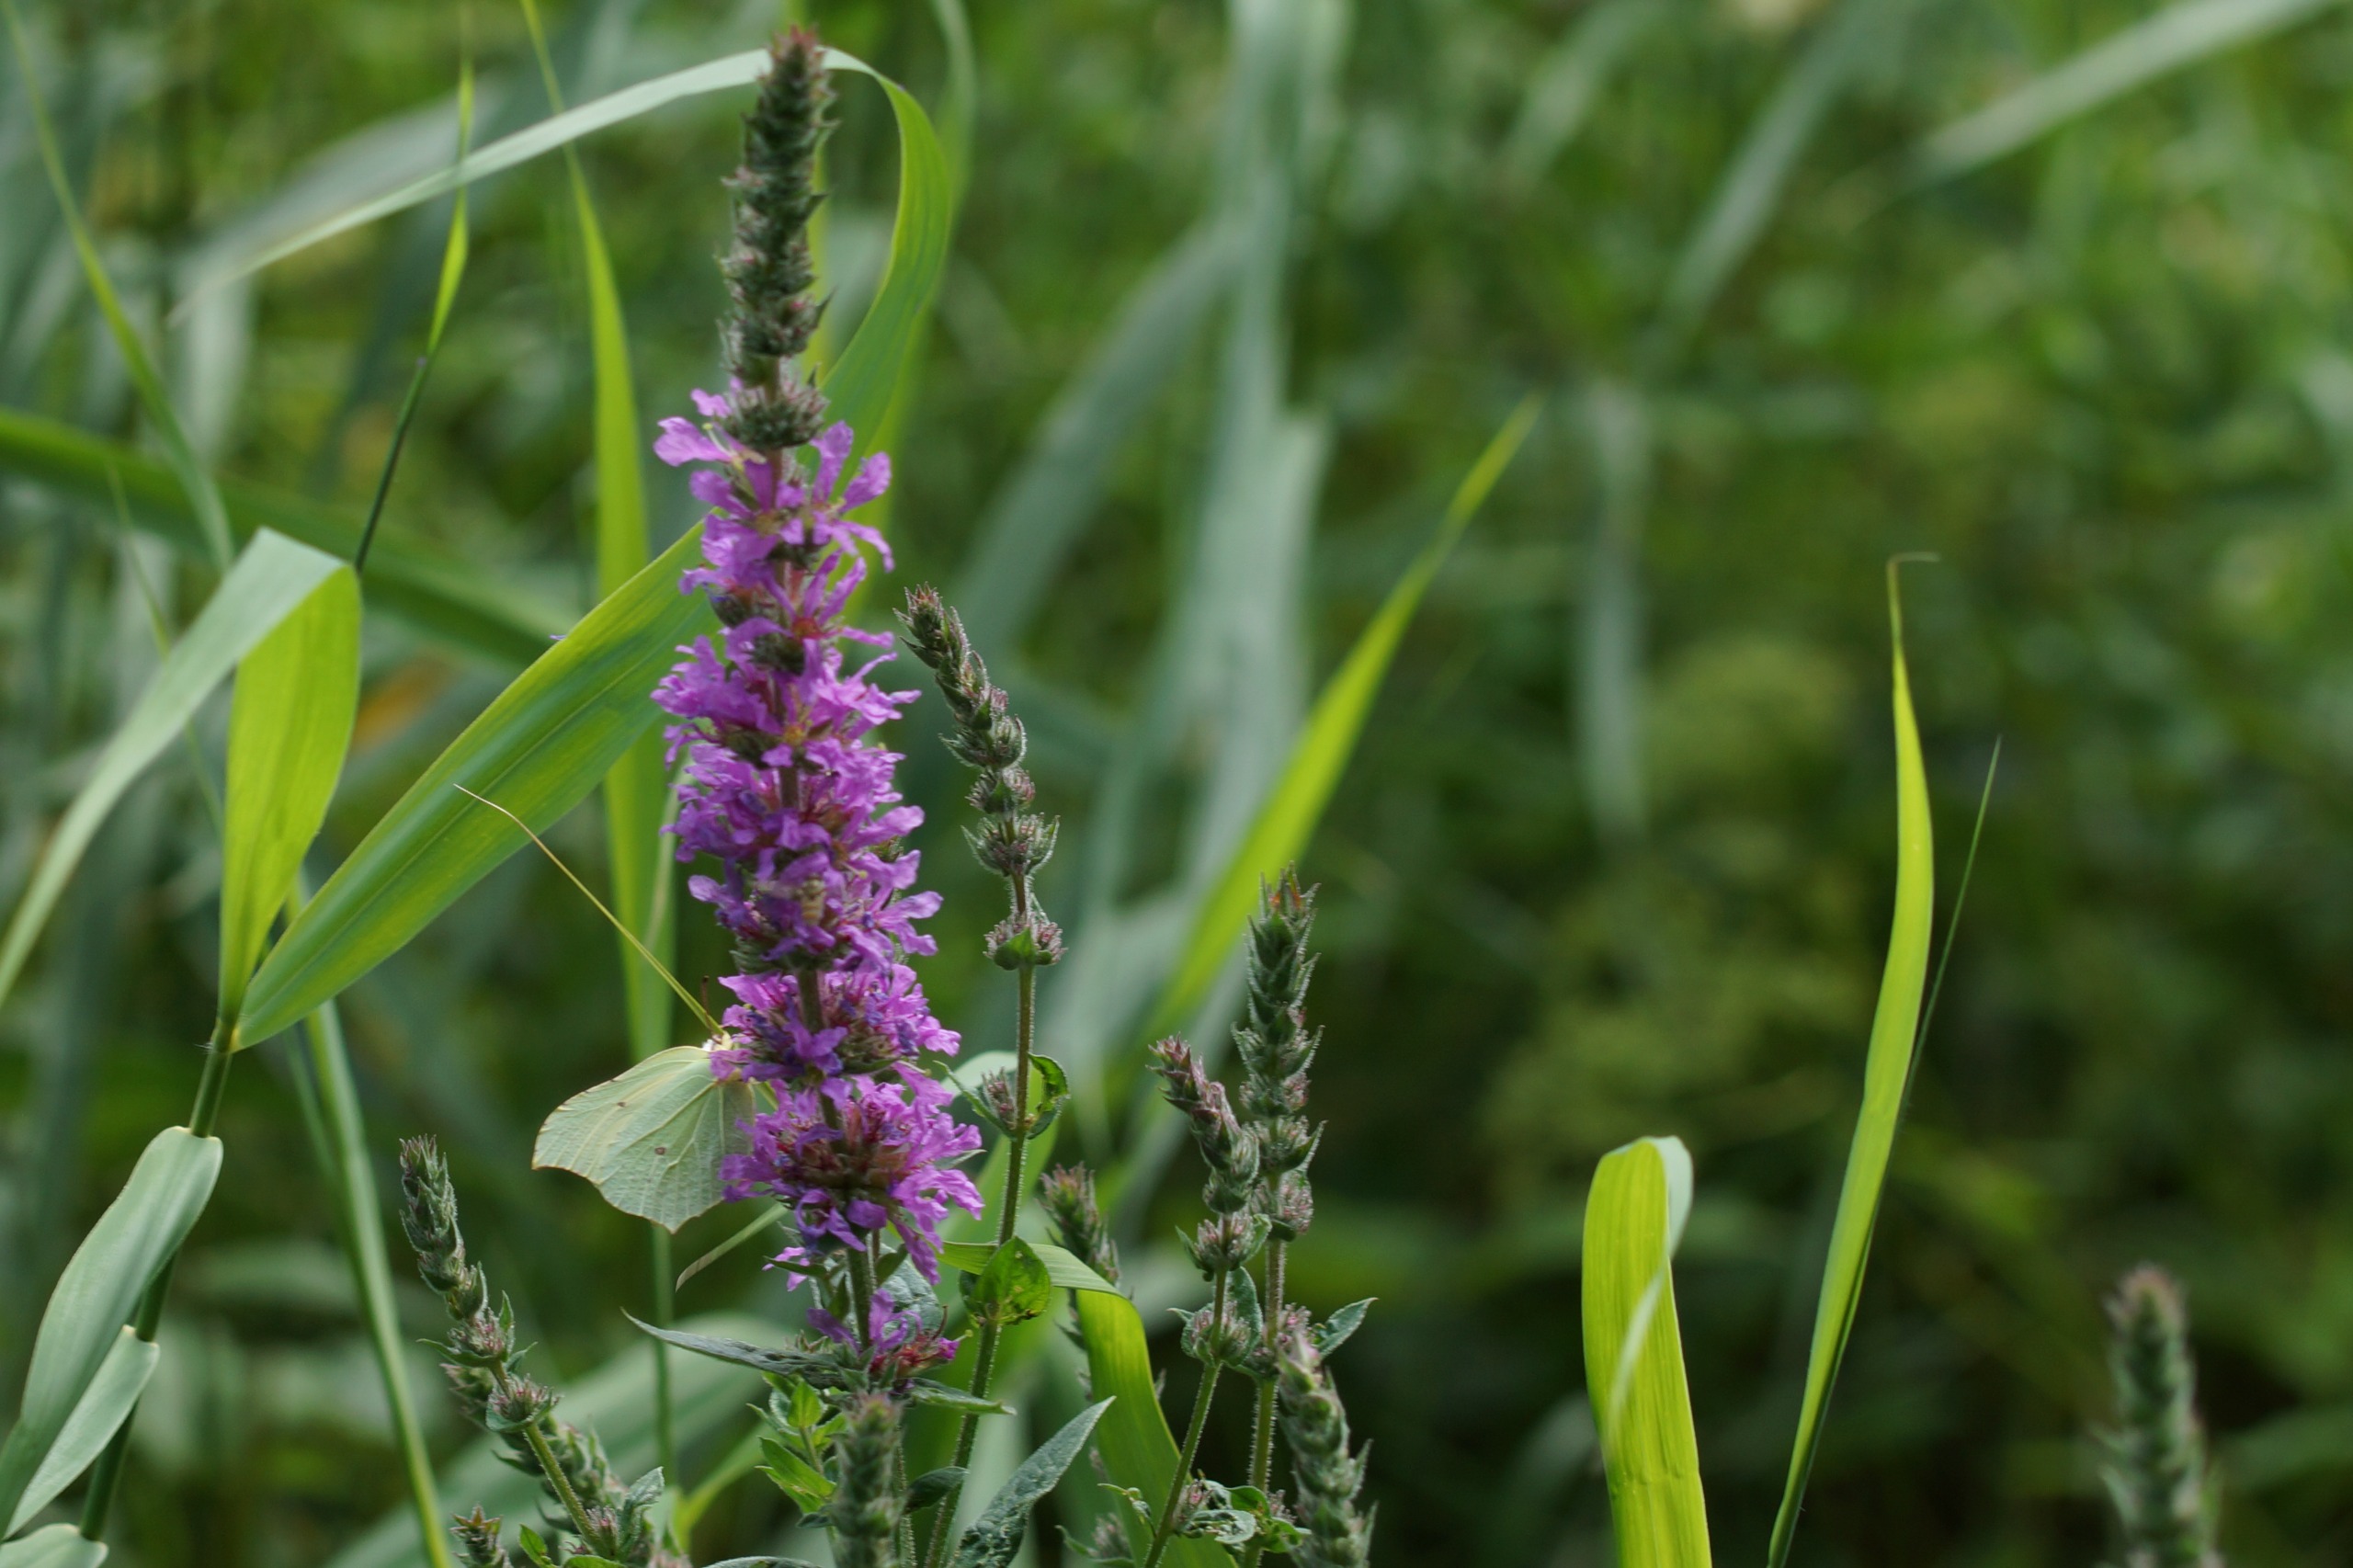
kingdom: Plantae
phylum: Tracheophyta
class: Magnoliopsida
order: Myrtales
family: Lythraceae
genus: Lythrum
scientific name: Lythrum salicaria
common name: Kattehale
